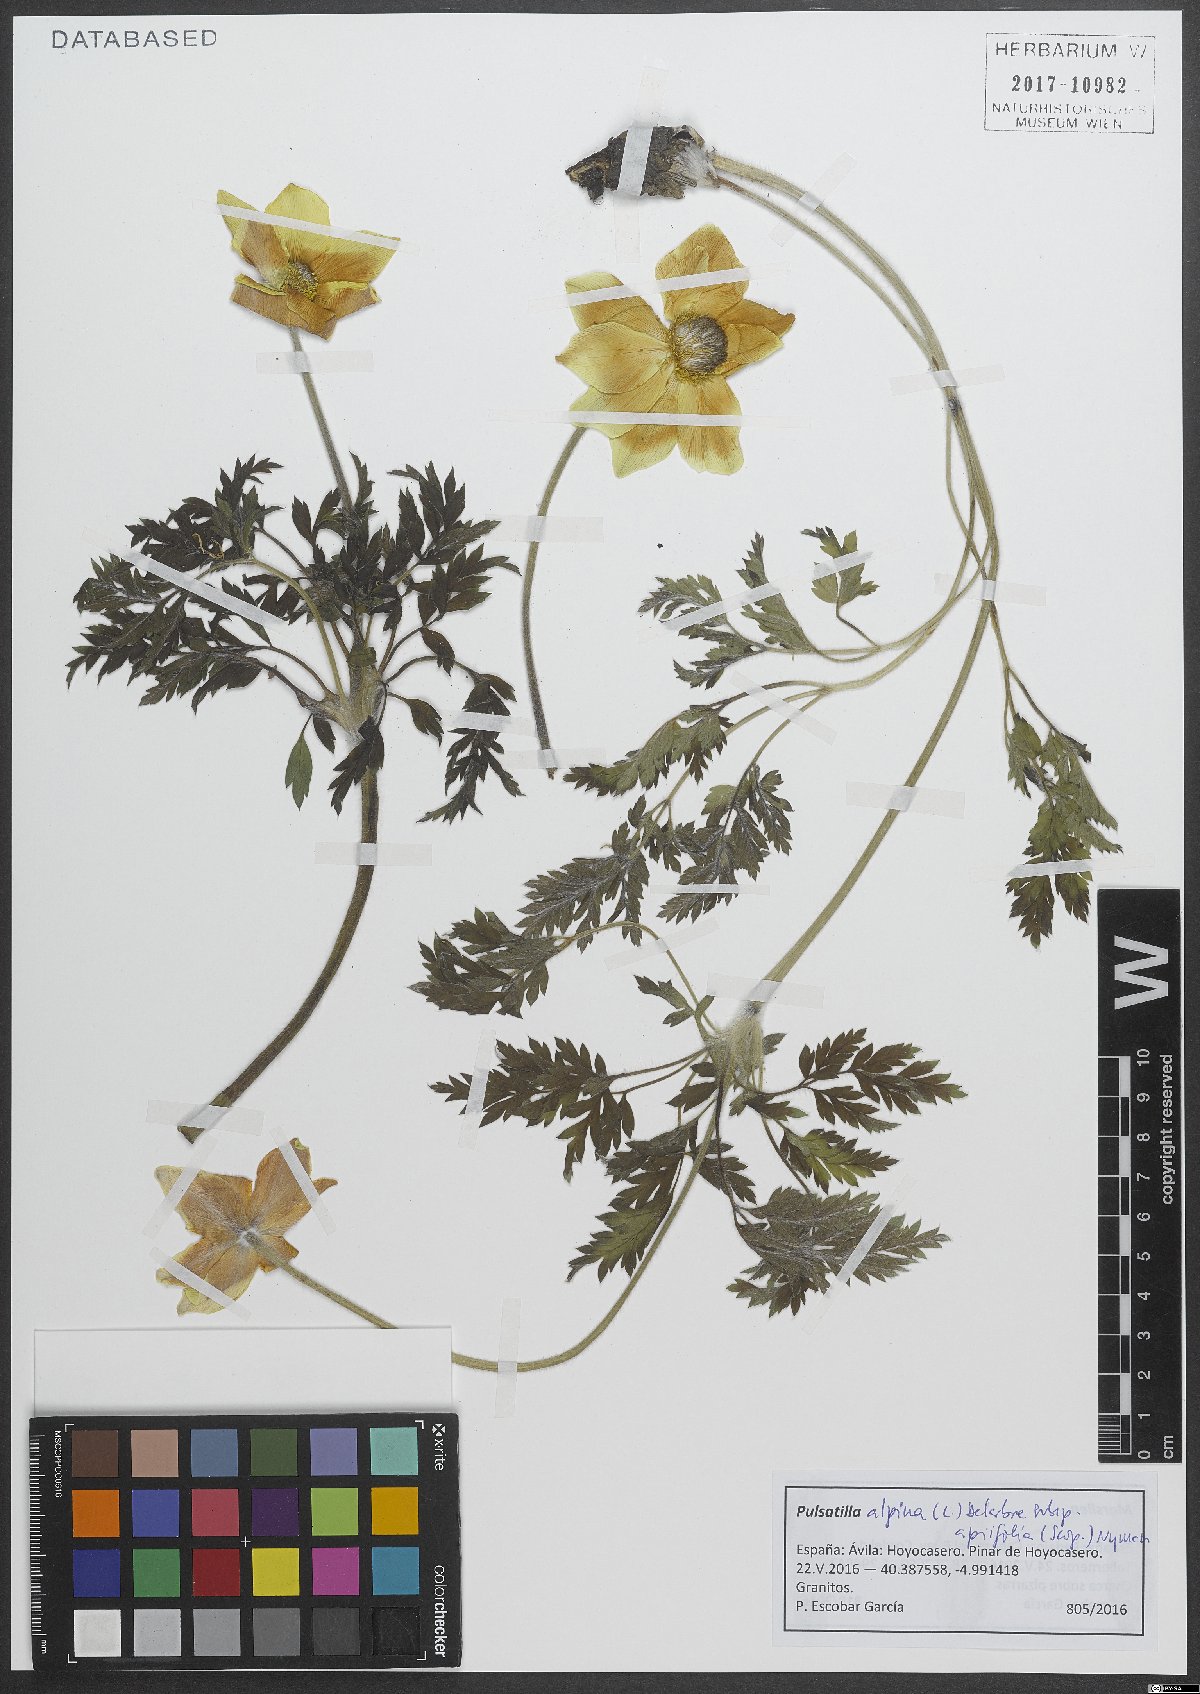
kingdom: Plantae
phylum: Tracheophyta
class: Magnoliopsida
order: Ranunculales
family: Ranunculaceae
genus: Pulsatilla
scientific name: Pulsatilla alpina
